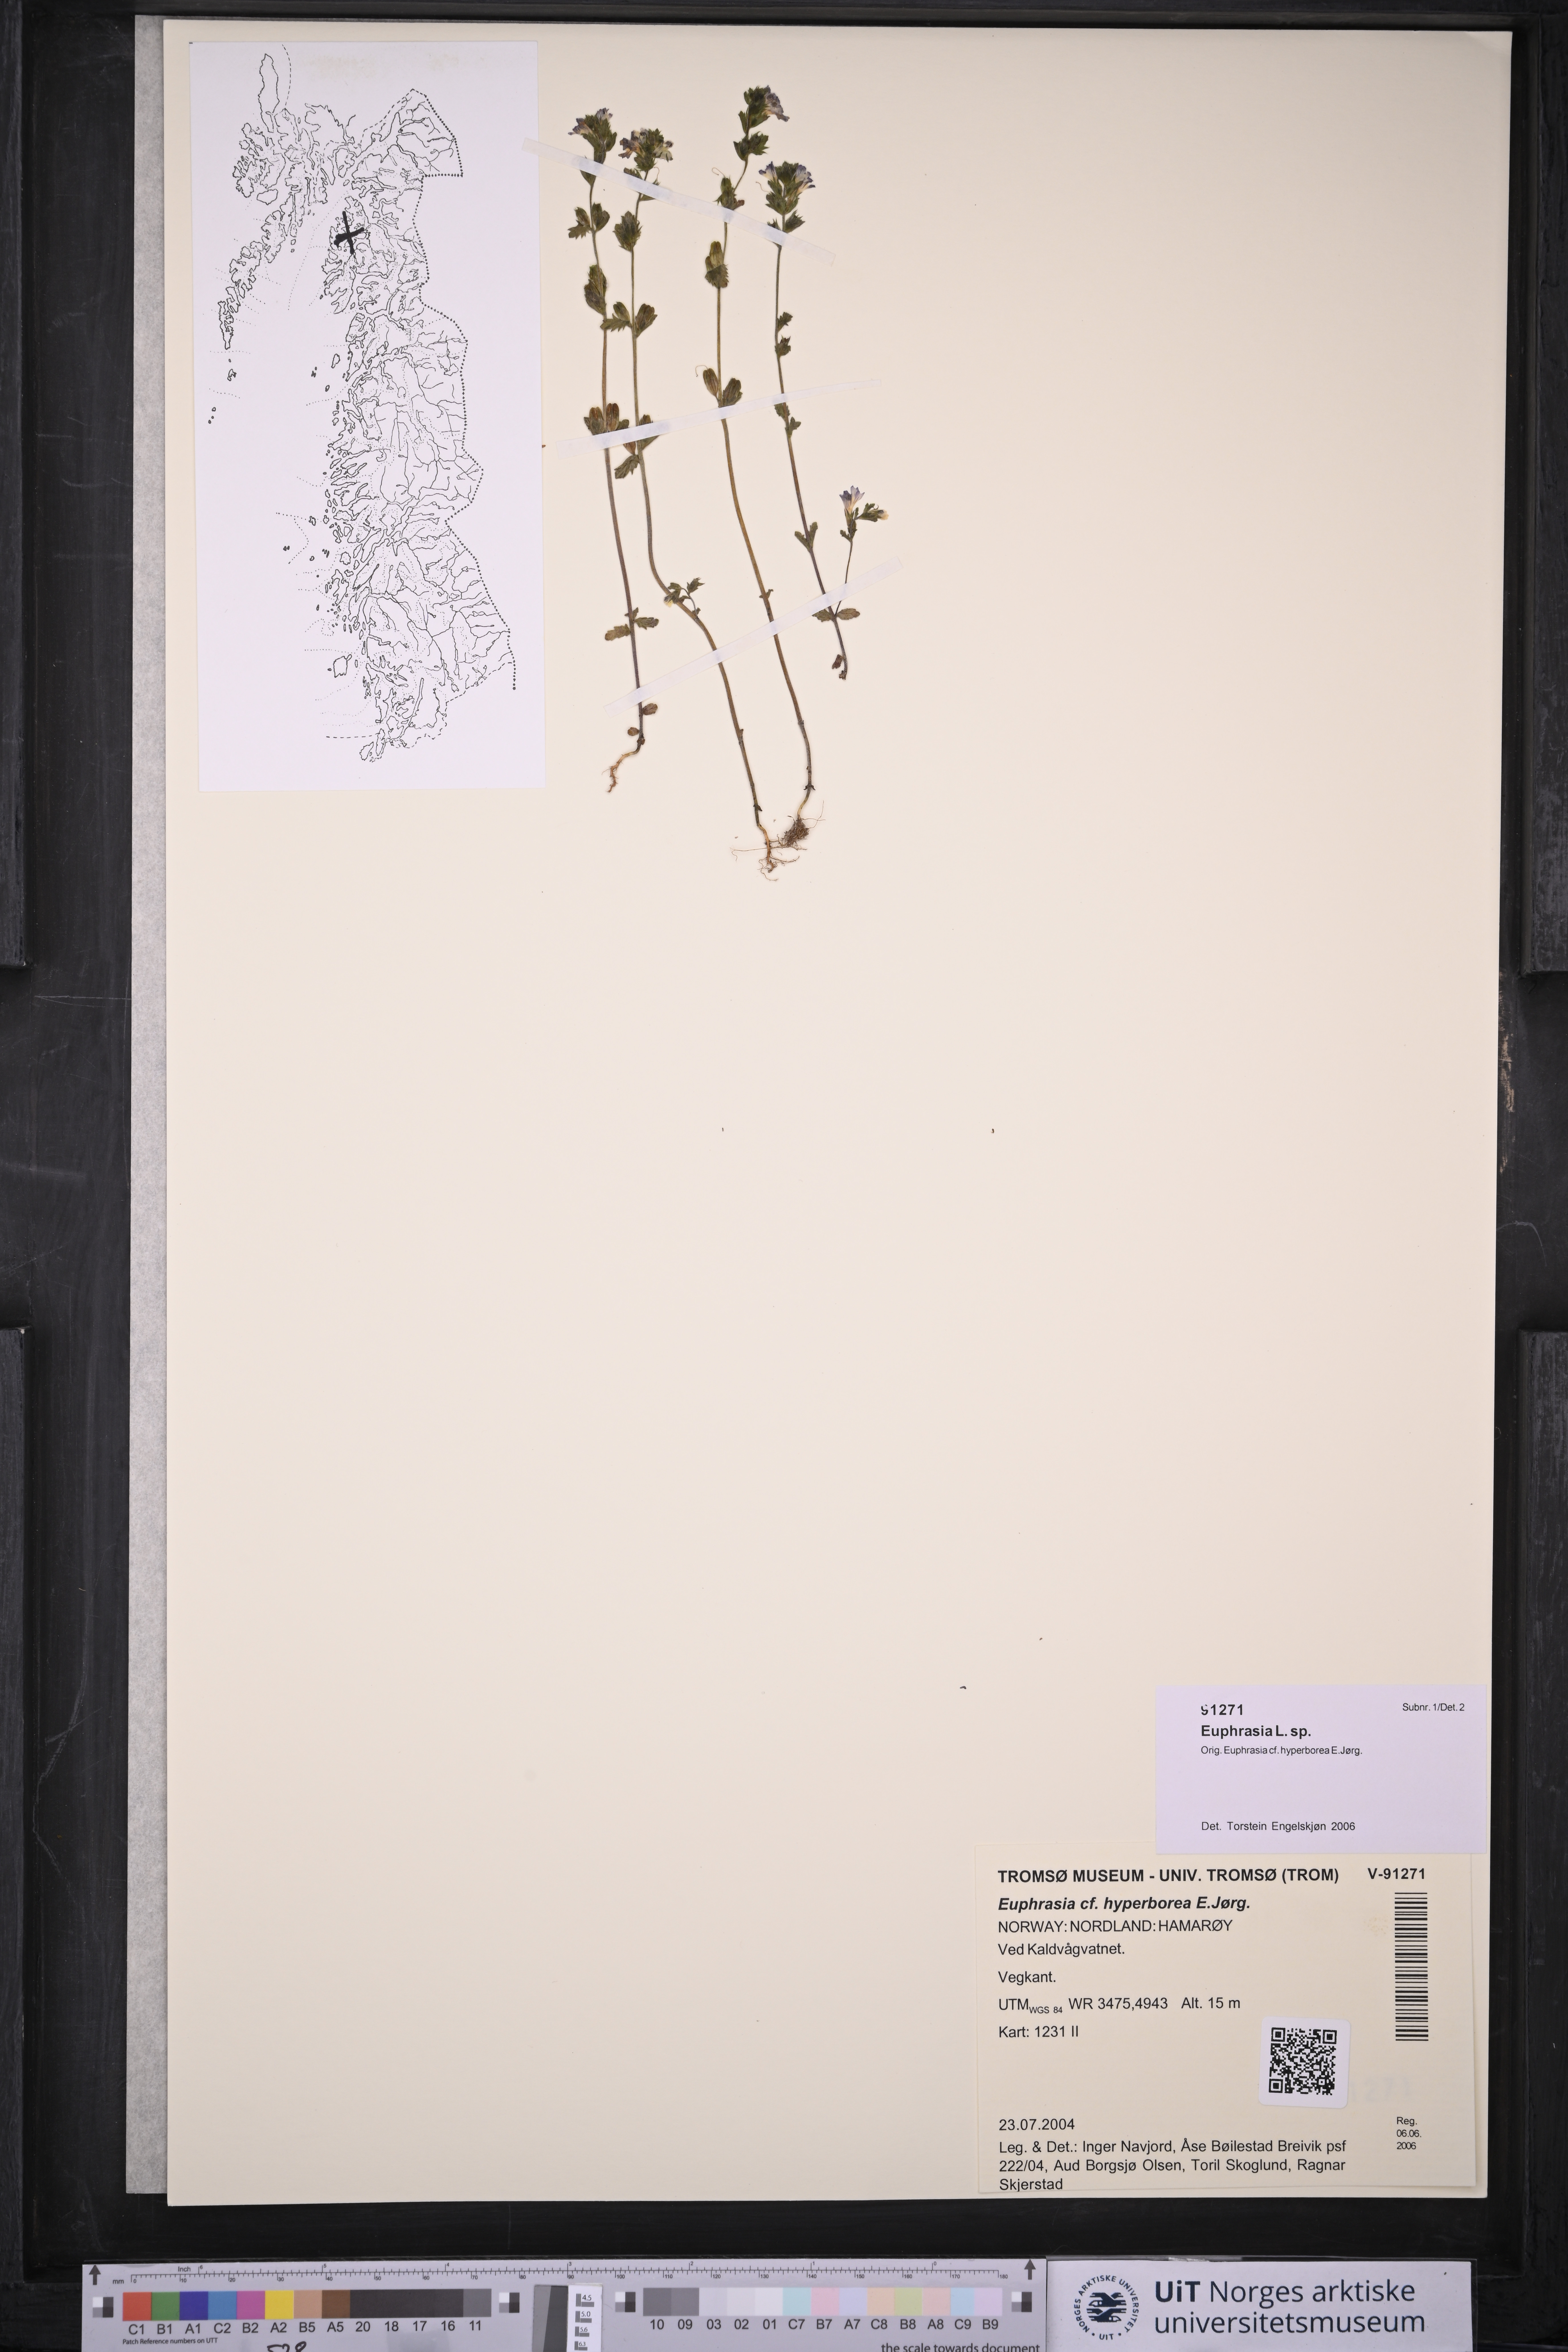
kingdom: Plantae
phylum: Tracheophyta
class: Magnoliopsida
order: Lamiales
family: Orobanchaceae
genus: Euphrasia
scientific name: Euphrasia
